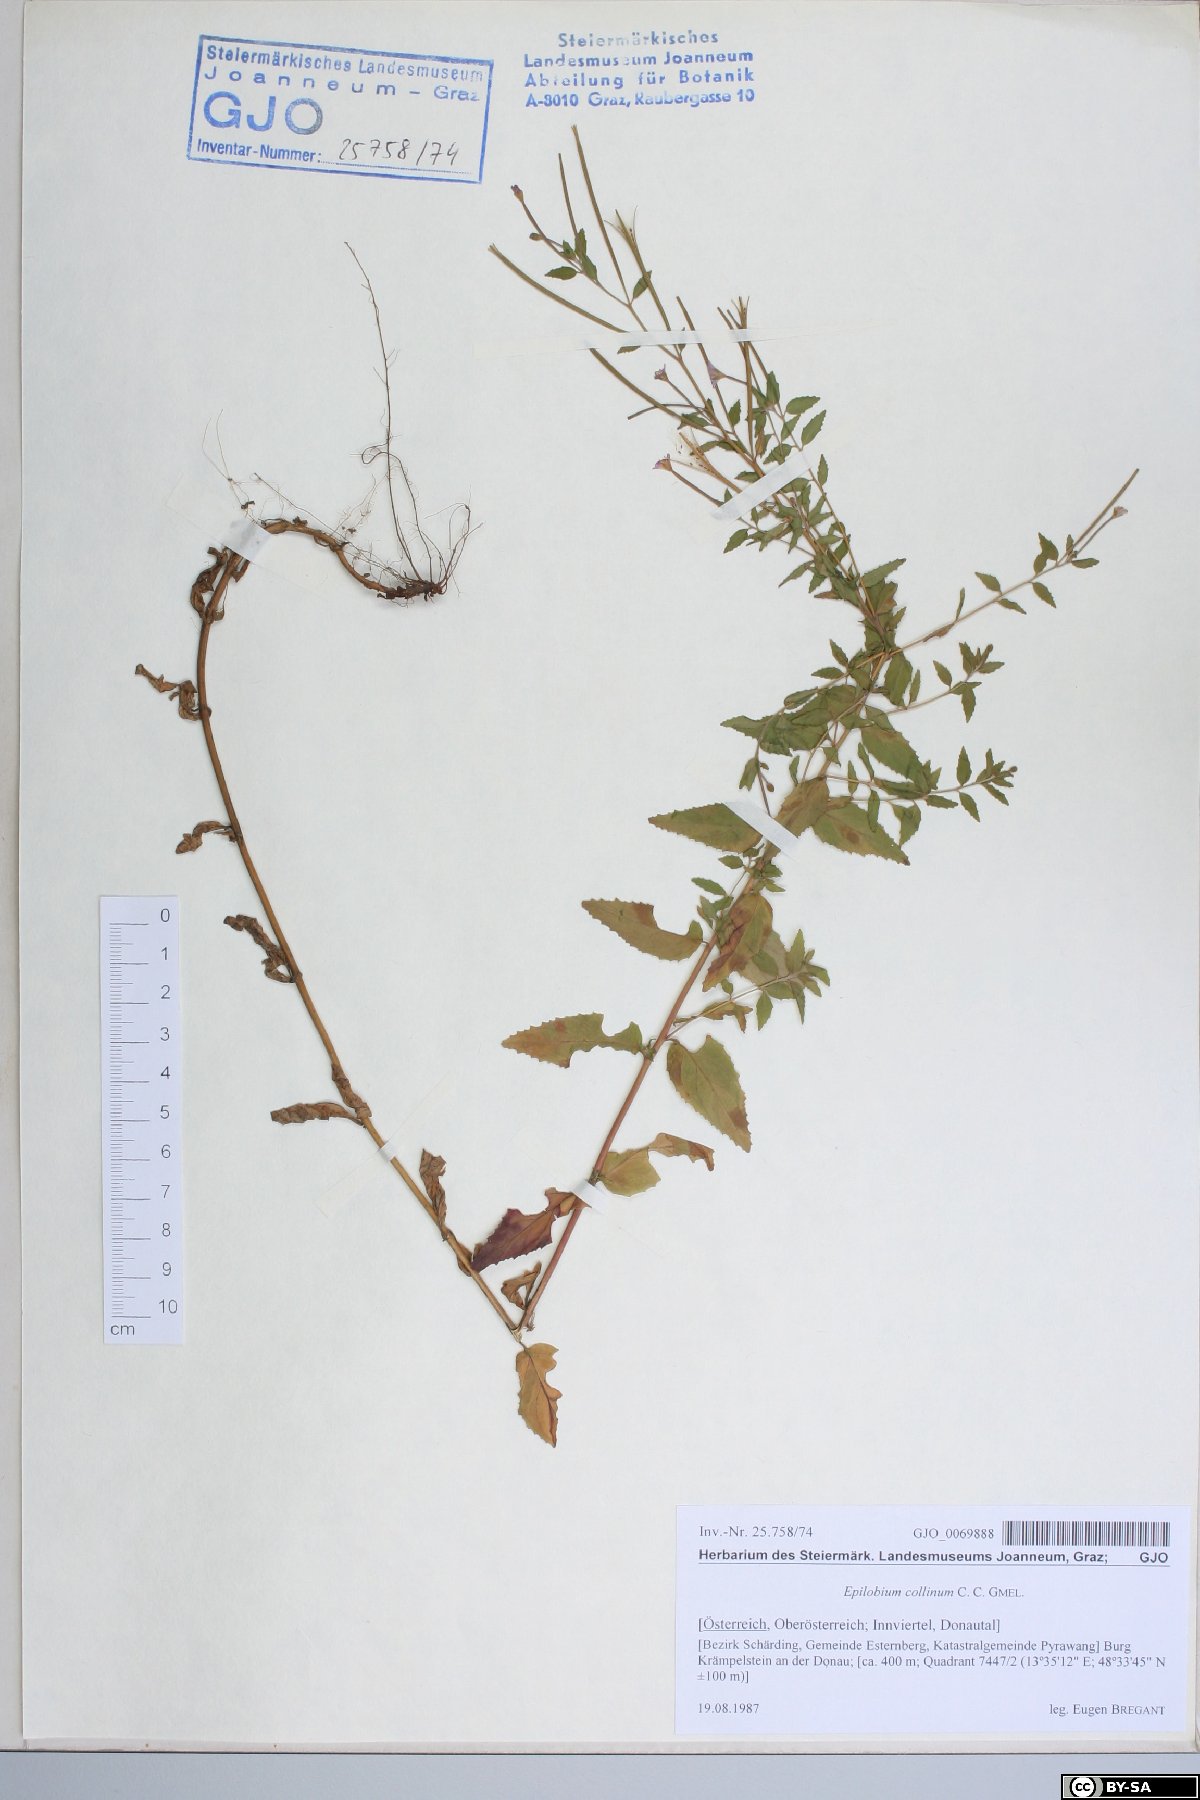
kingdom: Plantae
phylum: Tracheophyta
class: Magnoliopsida
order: Myrtales
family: Onagraceae
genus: Epilobium
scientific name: Epilobium collinum
